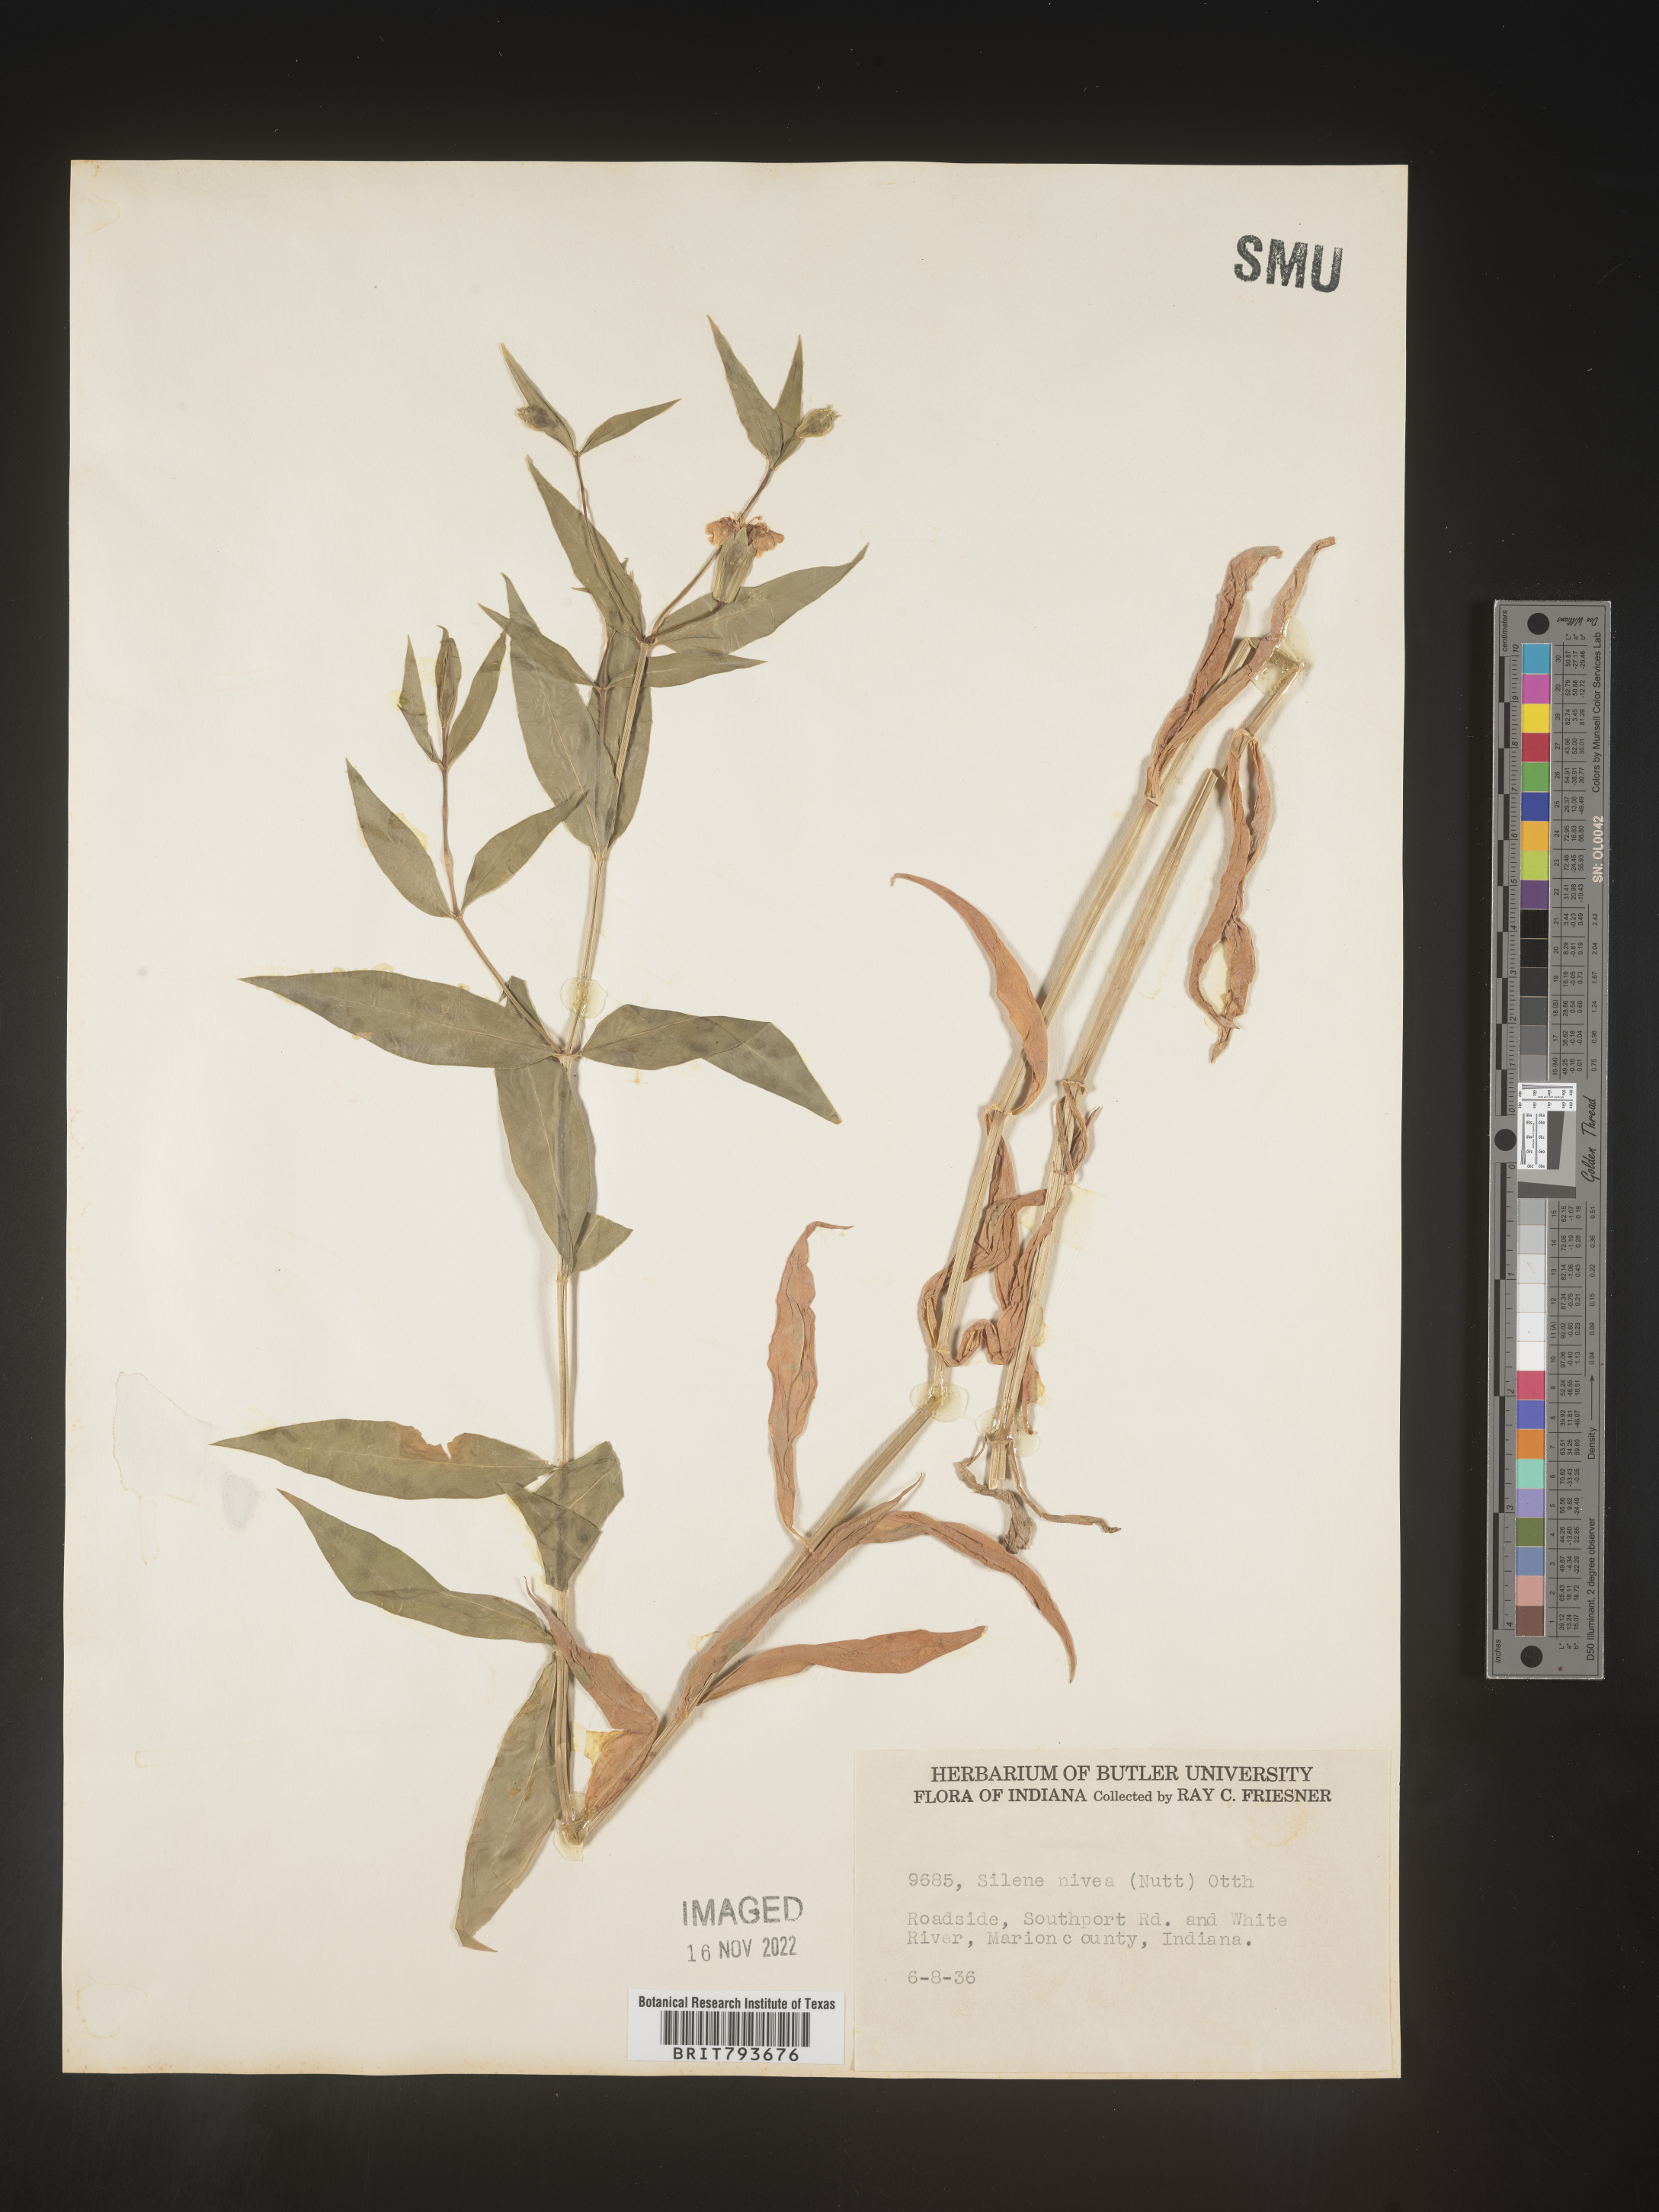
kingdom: Plantae
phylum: Tracheophyta
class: Magnoliopsida
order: Caryophyllales
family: Caryophyllaceae
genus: Silene
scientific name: Silene nivea
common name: Snowy campion
